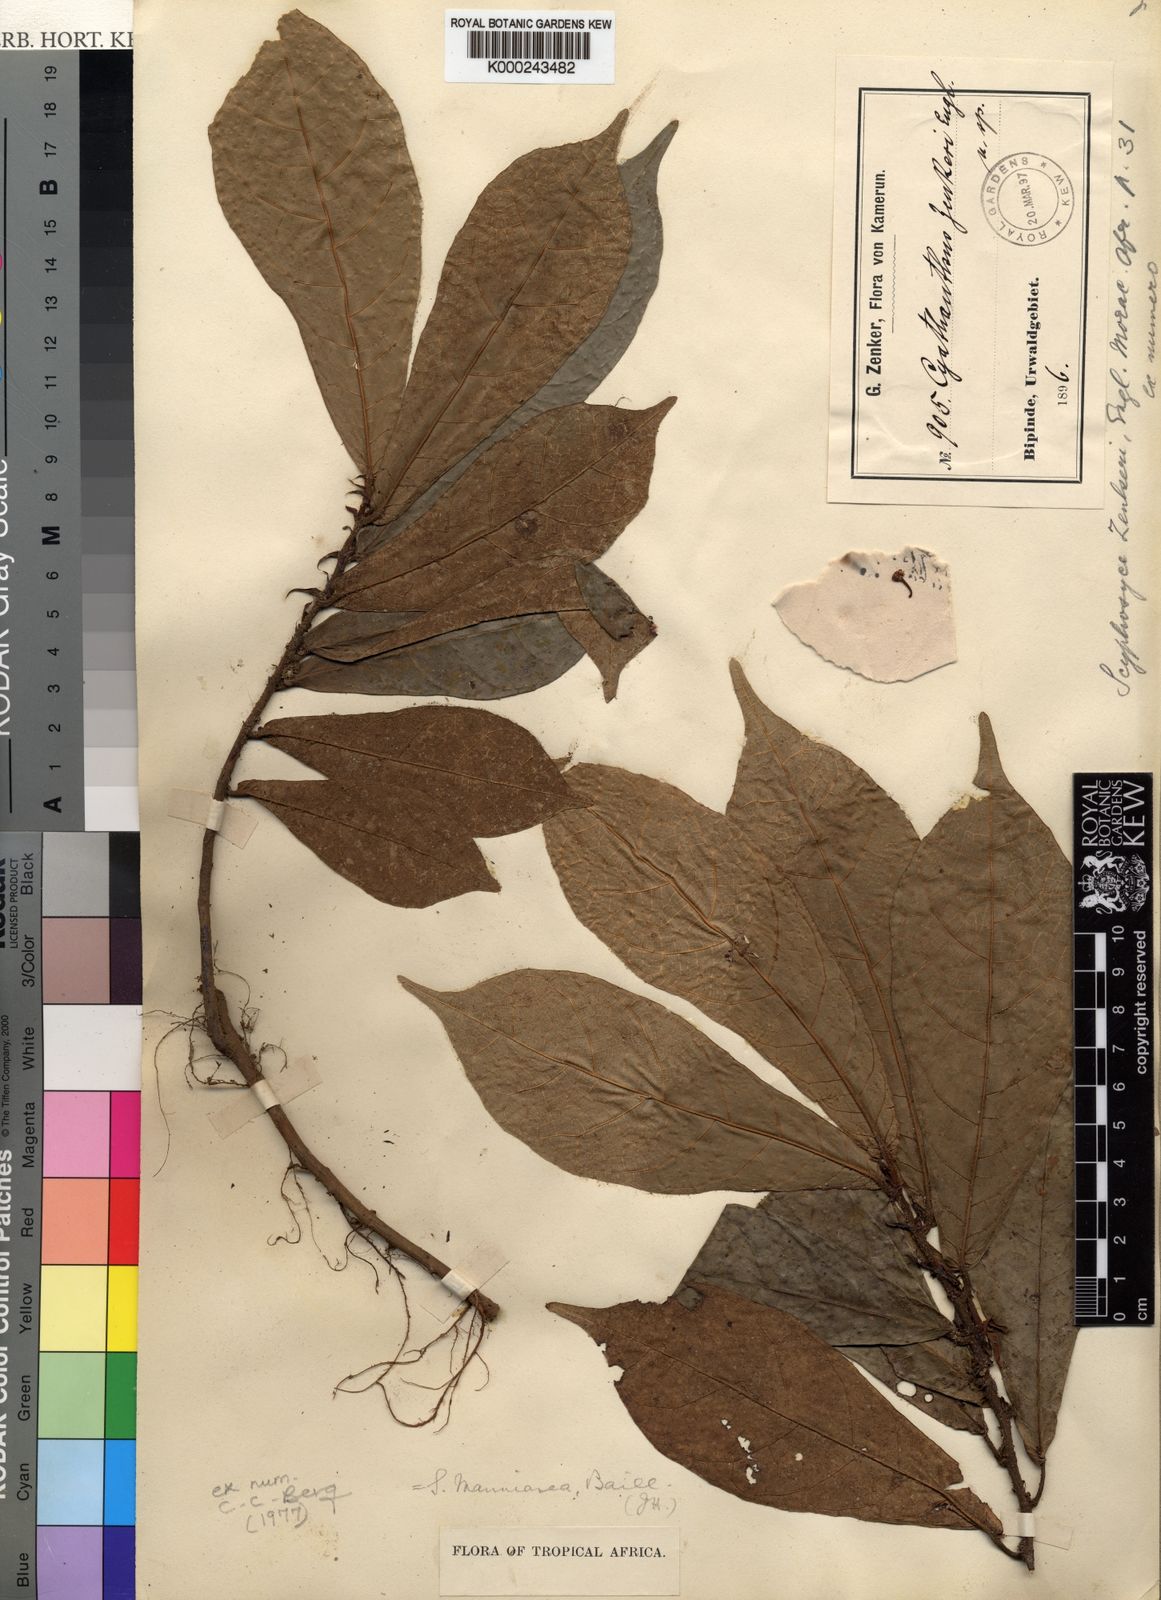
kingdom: Plantae
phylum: Tracheophyta
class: Magnoliopsida
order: Rosales
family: Moraceae
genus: Scyphosyce
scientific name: Scyphosyce manniana
